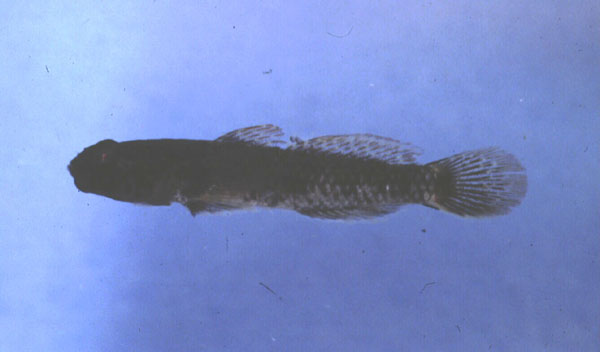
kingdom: Animalia
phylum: Chordata
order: Perciformes
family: Gobiidae
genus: Bathygobius
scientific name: Bathygobius krefftii
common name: Frayedfin goby
